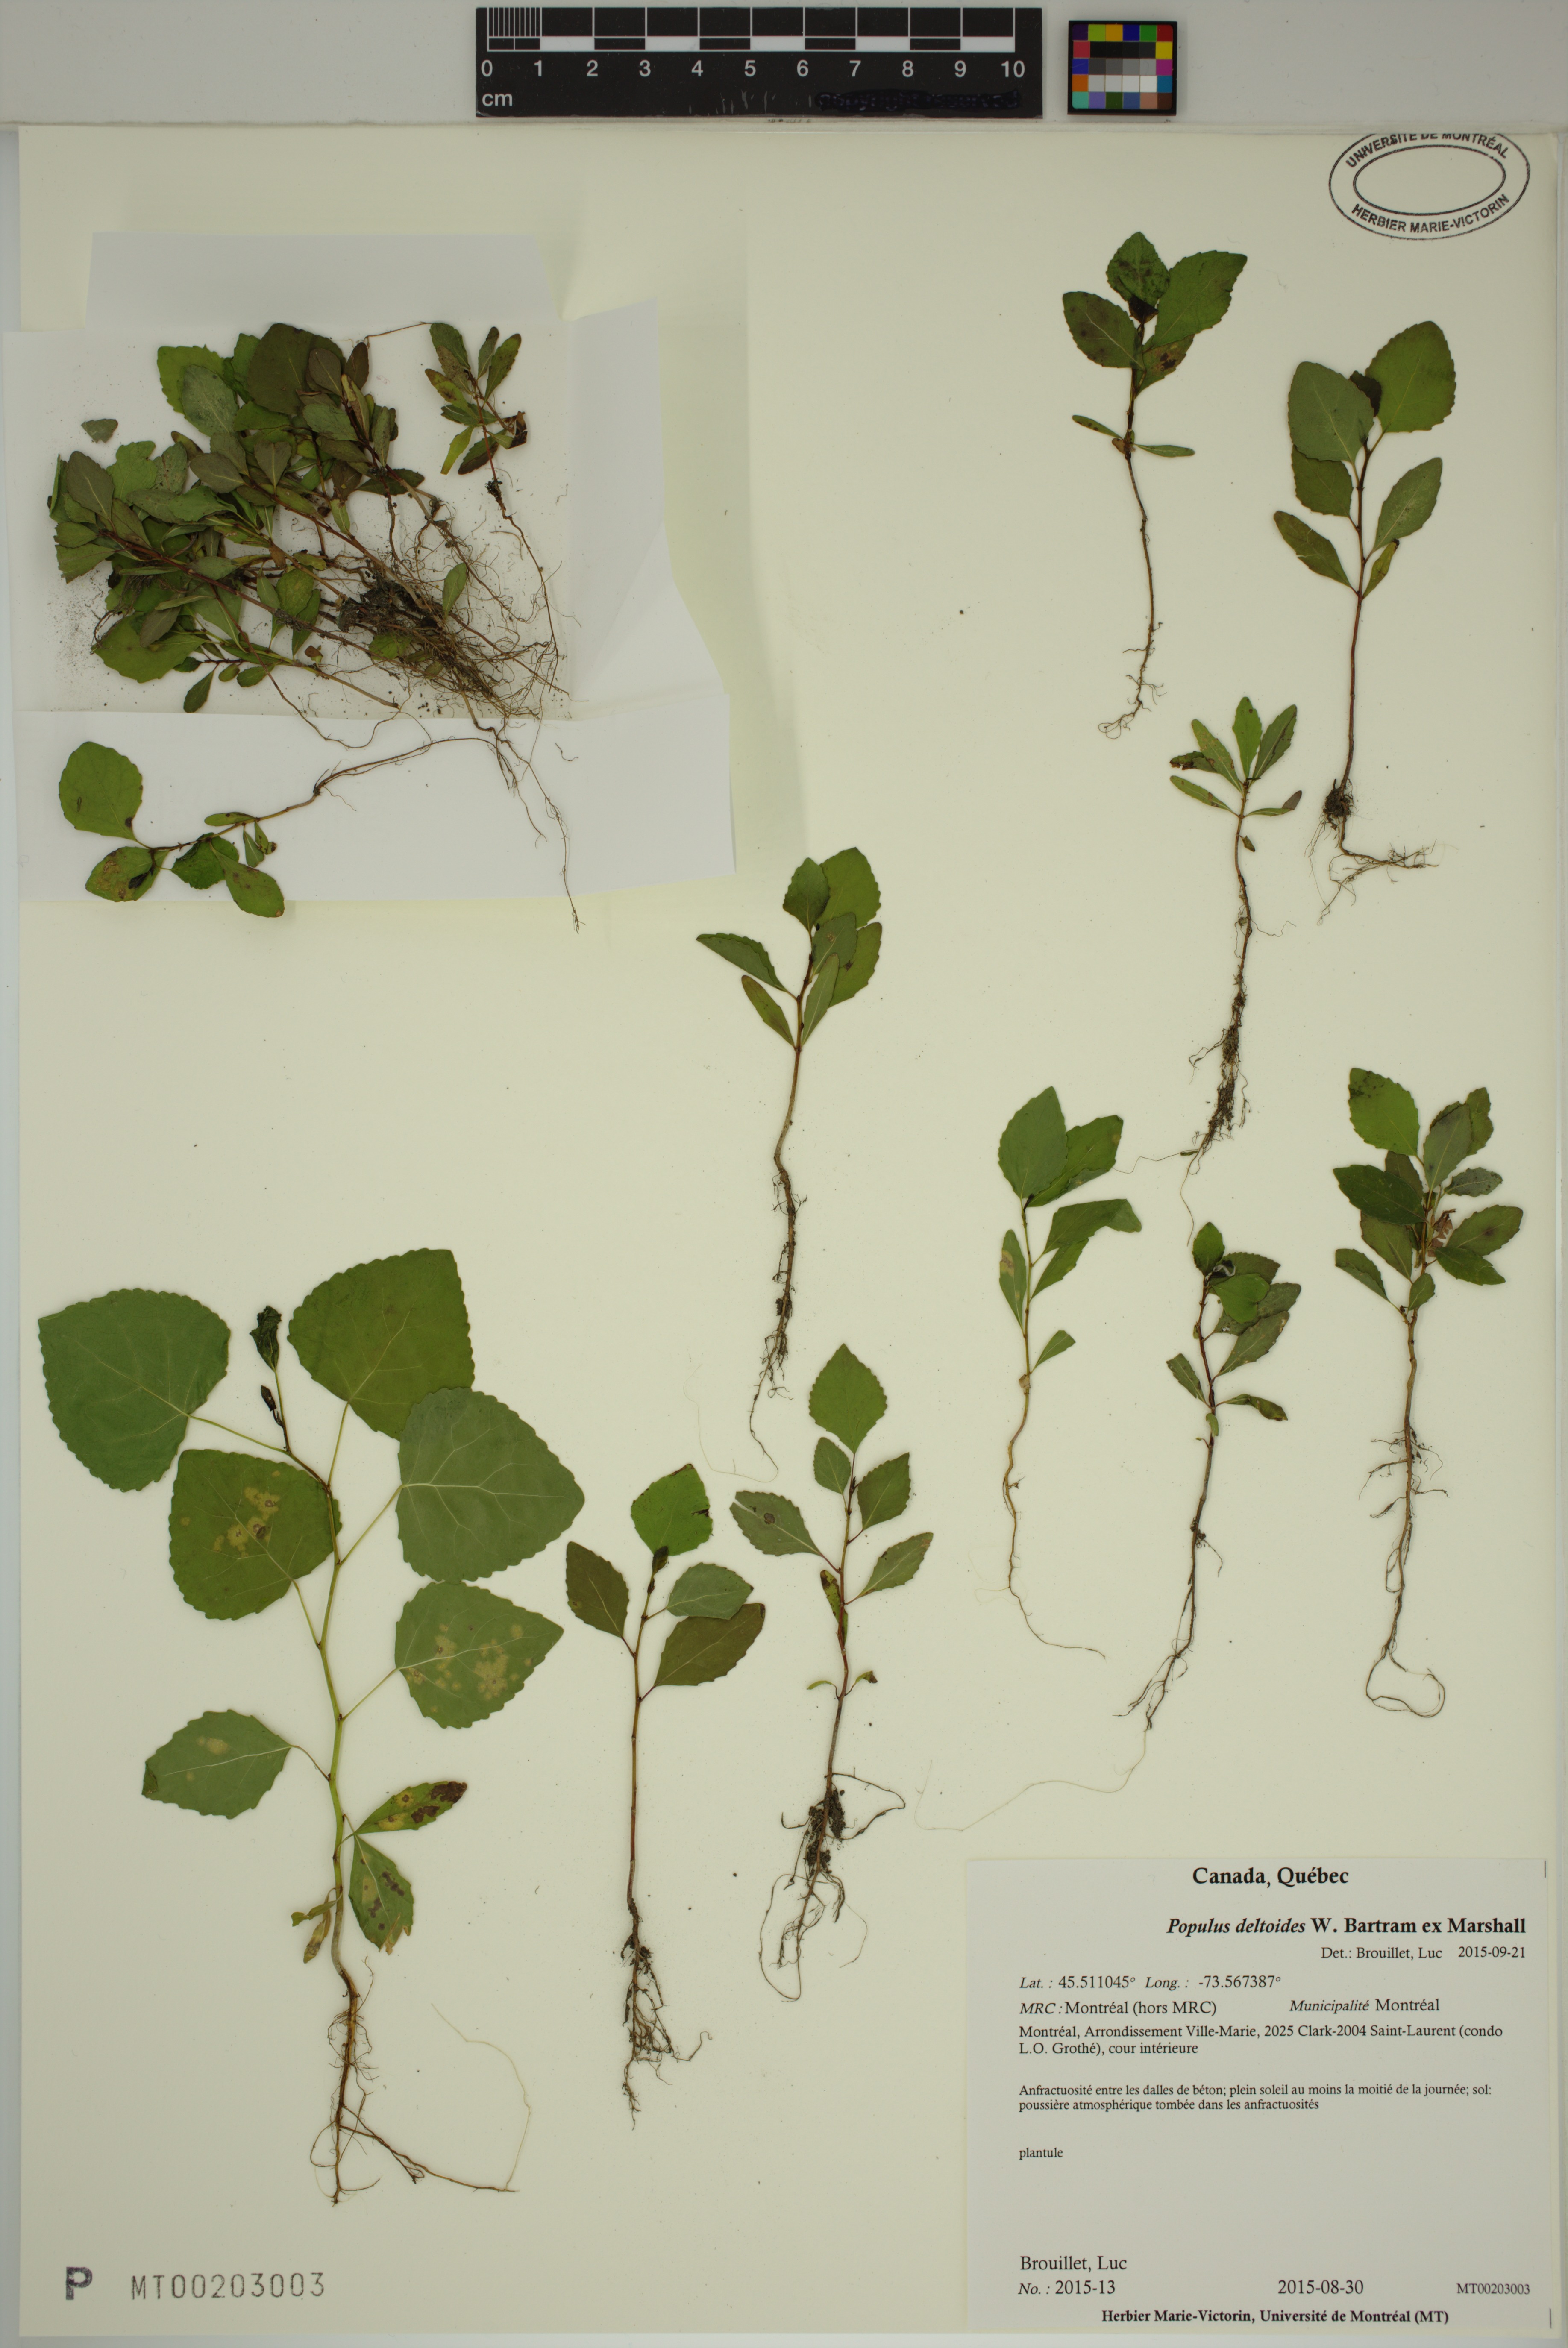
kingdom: Plantae
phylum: Tracheophyta
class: Magnoliopsida
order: Malpighiales
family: Salicaceae
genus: Populus
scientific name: Populus deltoides
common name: Eastern cottonwood
